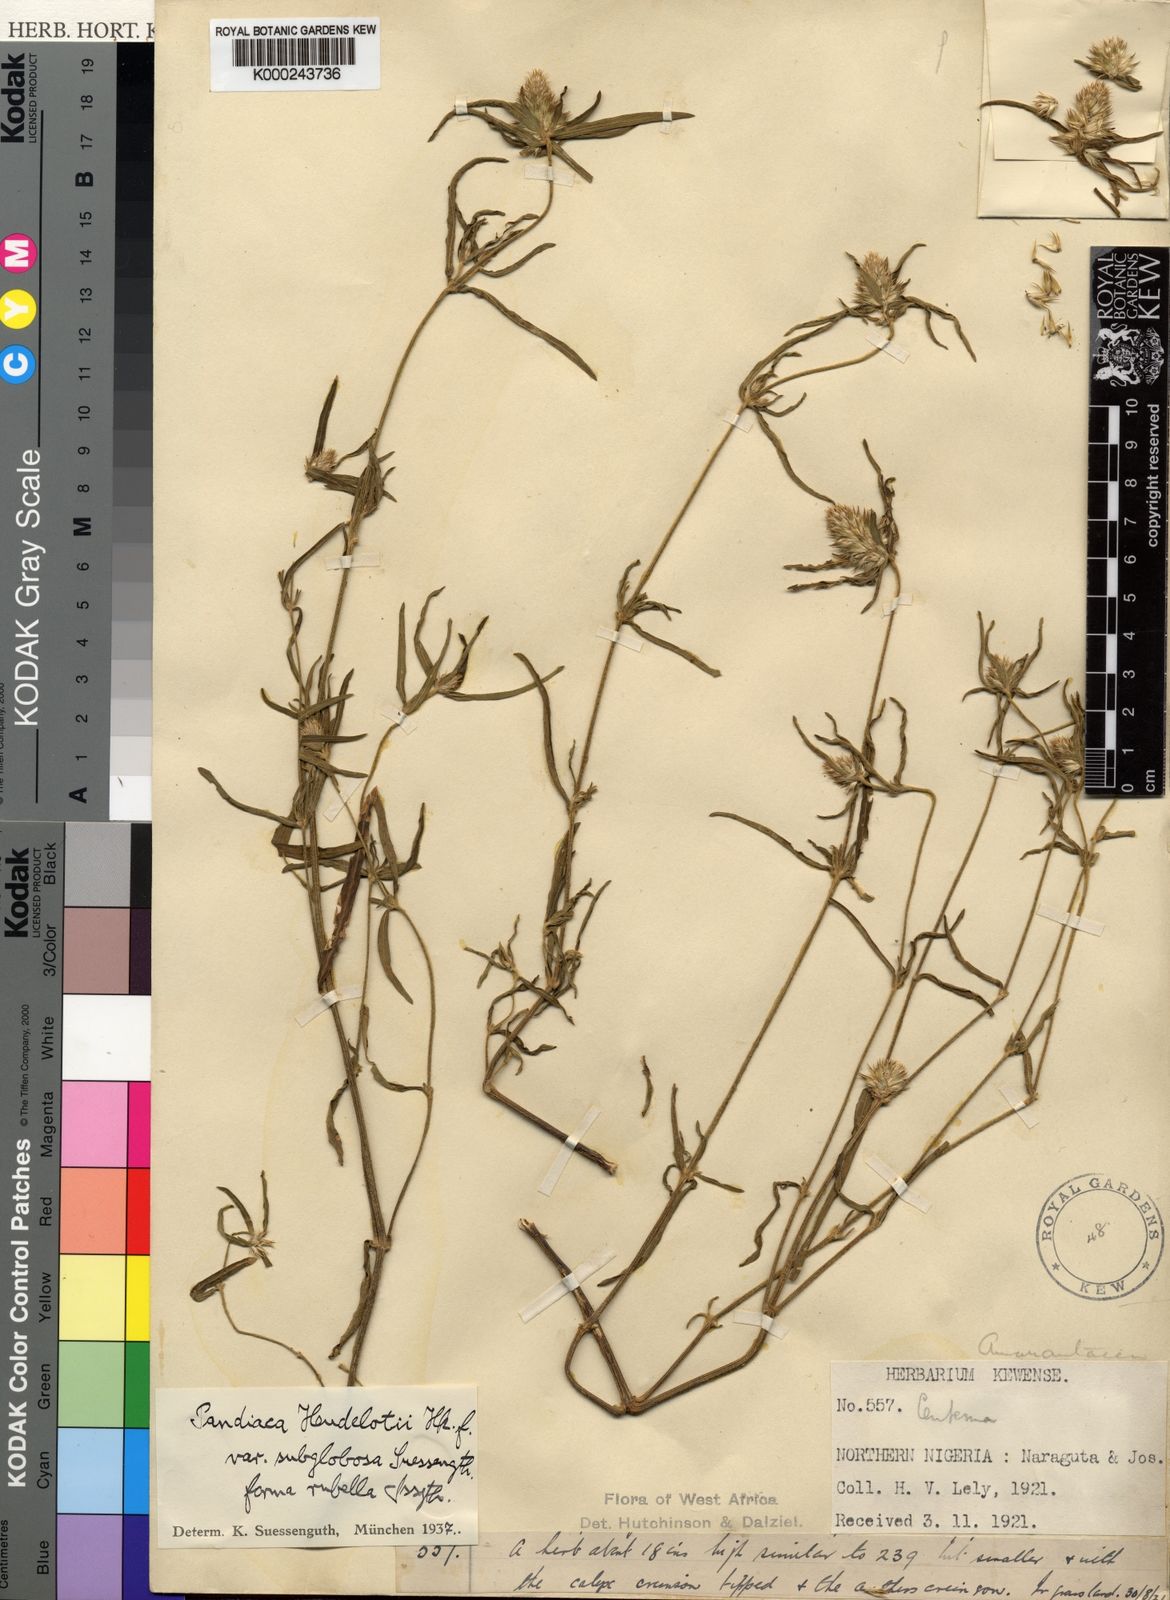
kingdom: Plantae
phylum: Tracheophyta
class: Magnoliopsida
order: Caryophyllales
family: Amaranthaceae
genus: Pandiaka
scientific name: Pandiaka angustifolia
